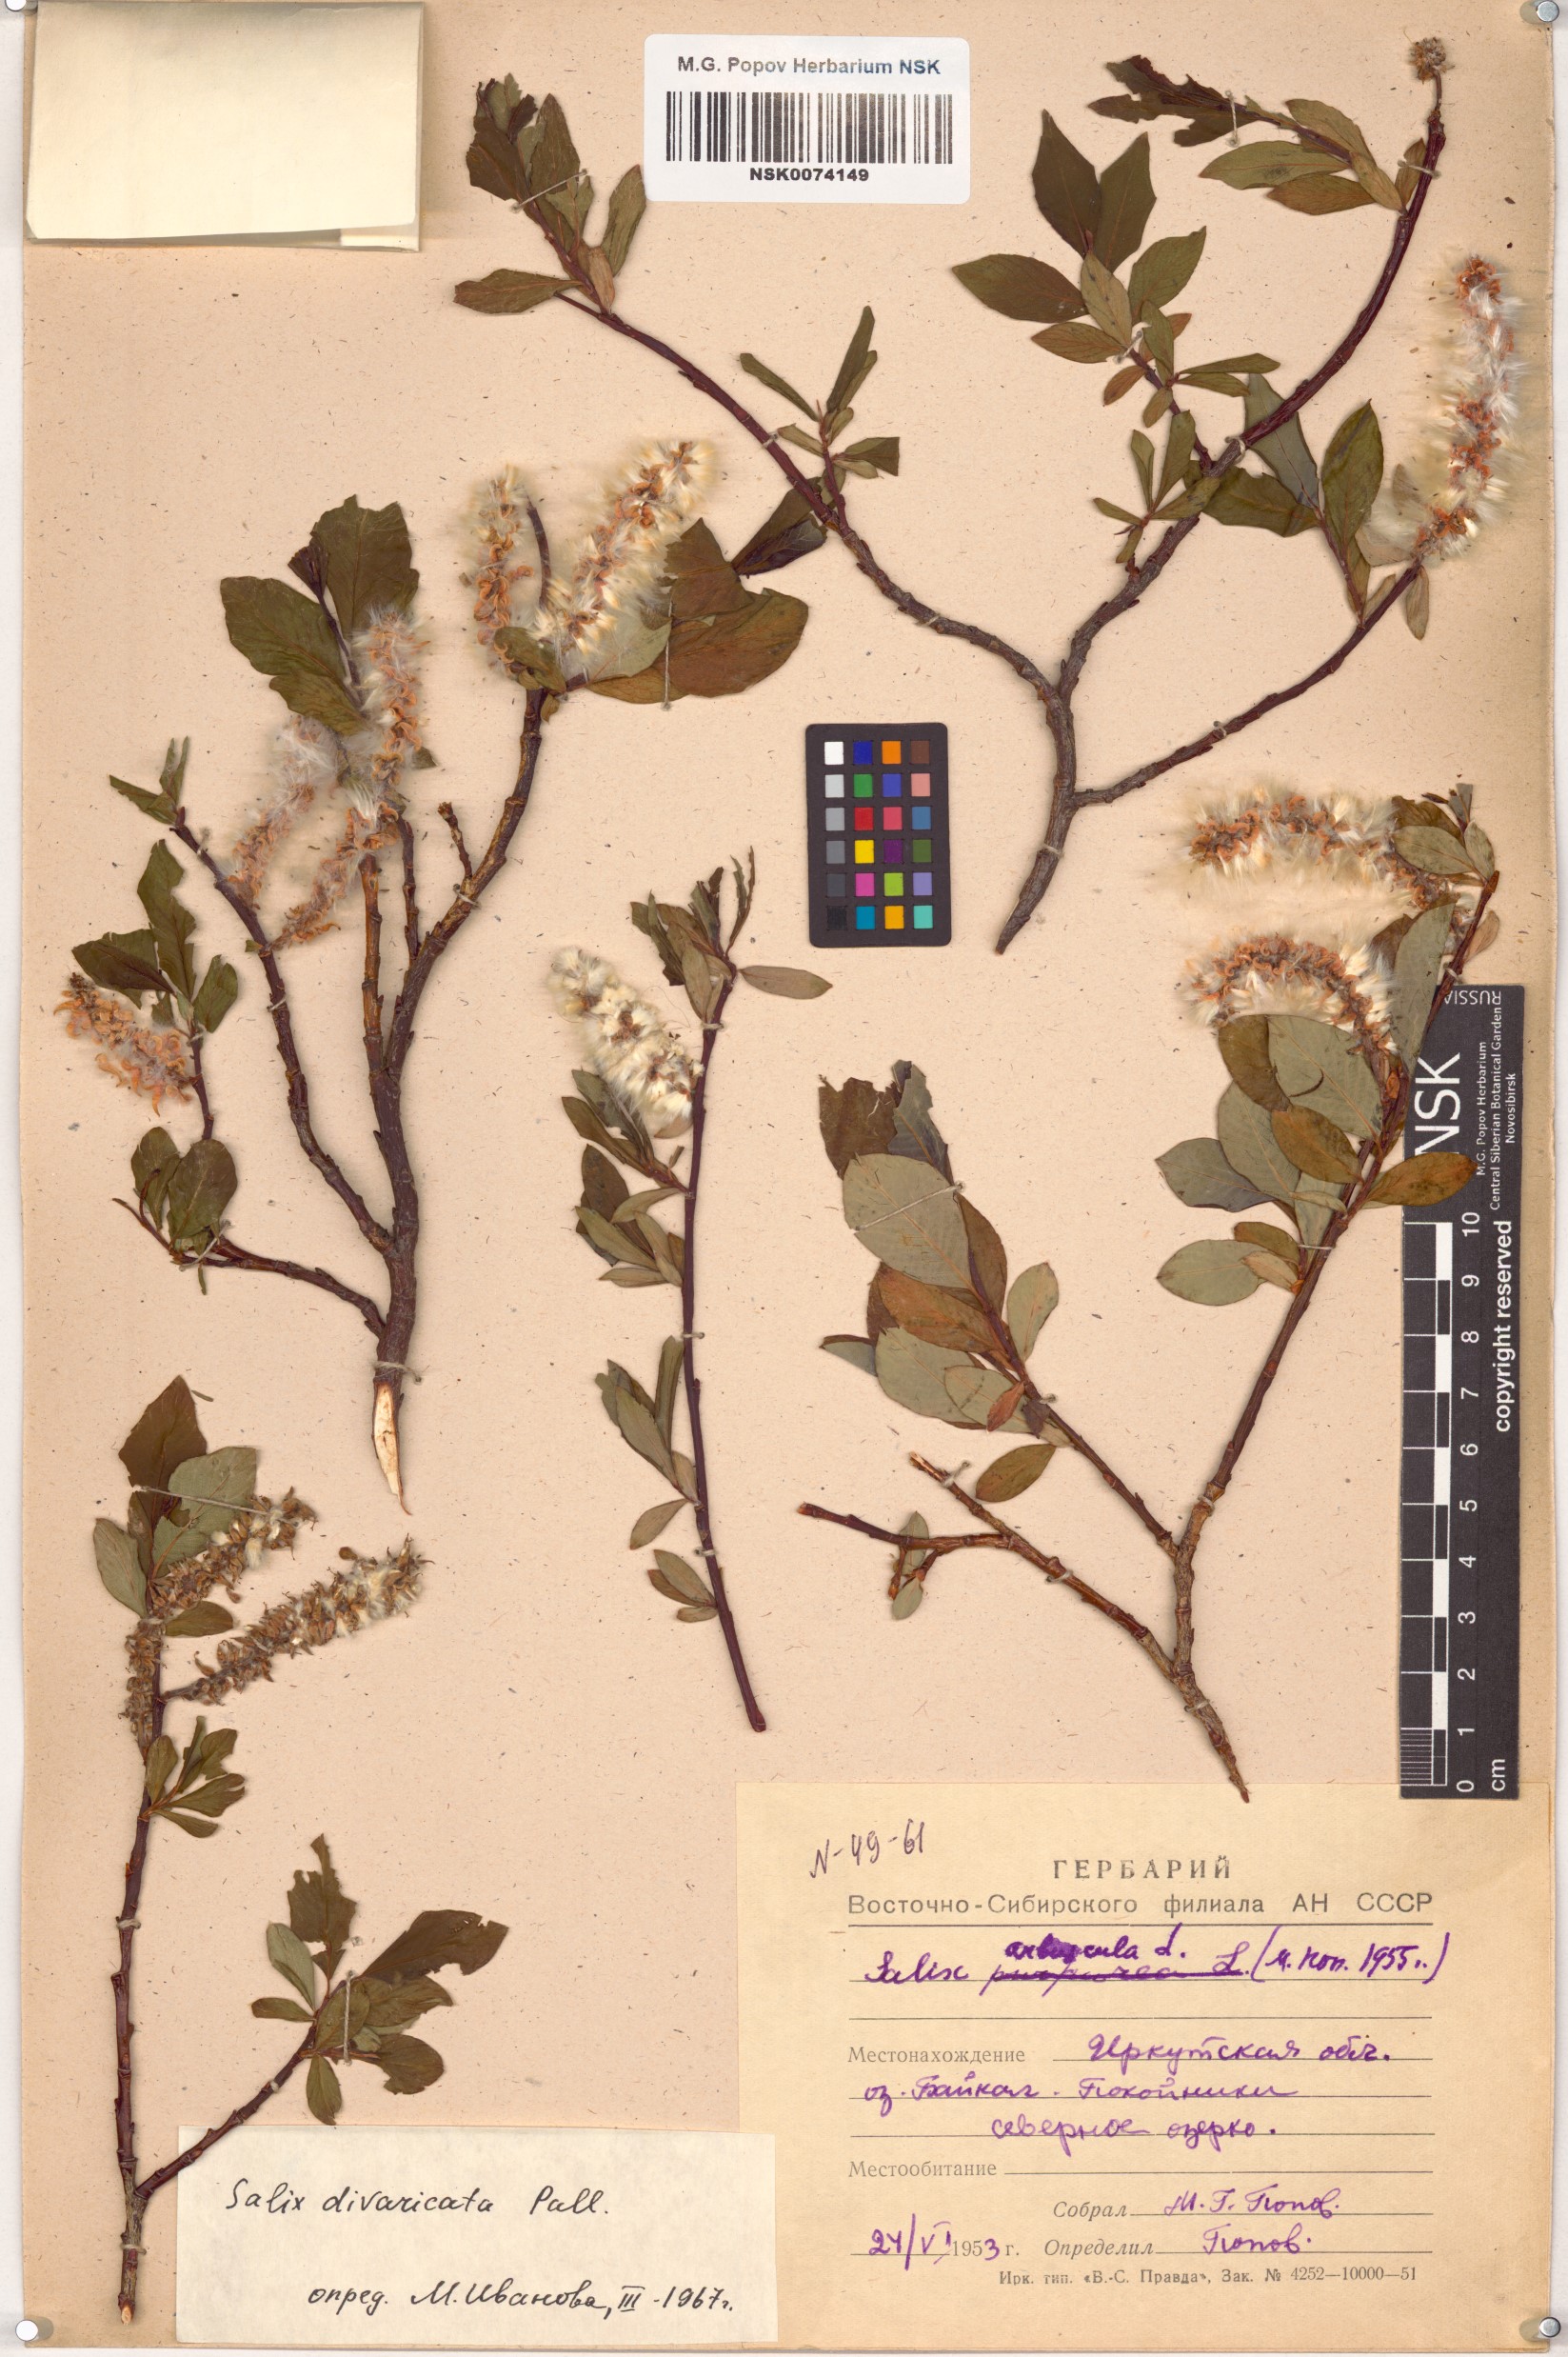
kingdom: Plantae
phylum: Tracheophyta
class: Magnoliopsida
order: Malpighiales
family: Salicaceae
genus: Salix
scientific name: Salix divaricata
